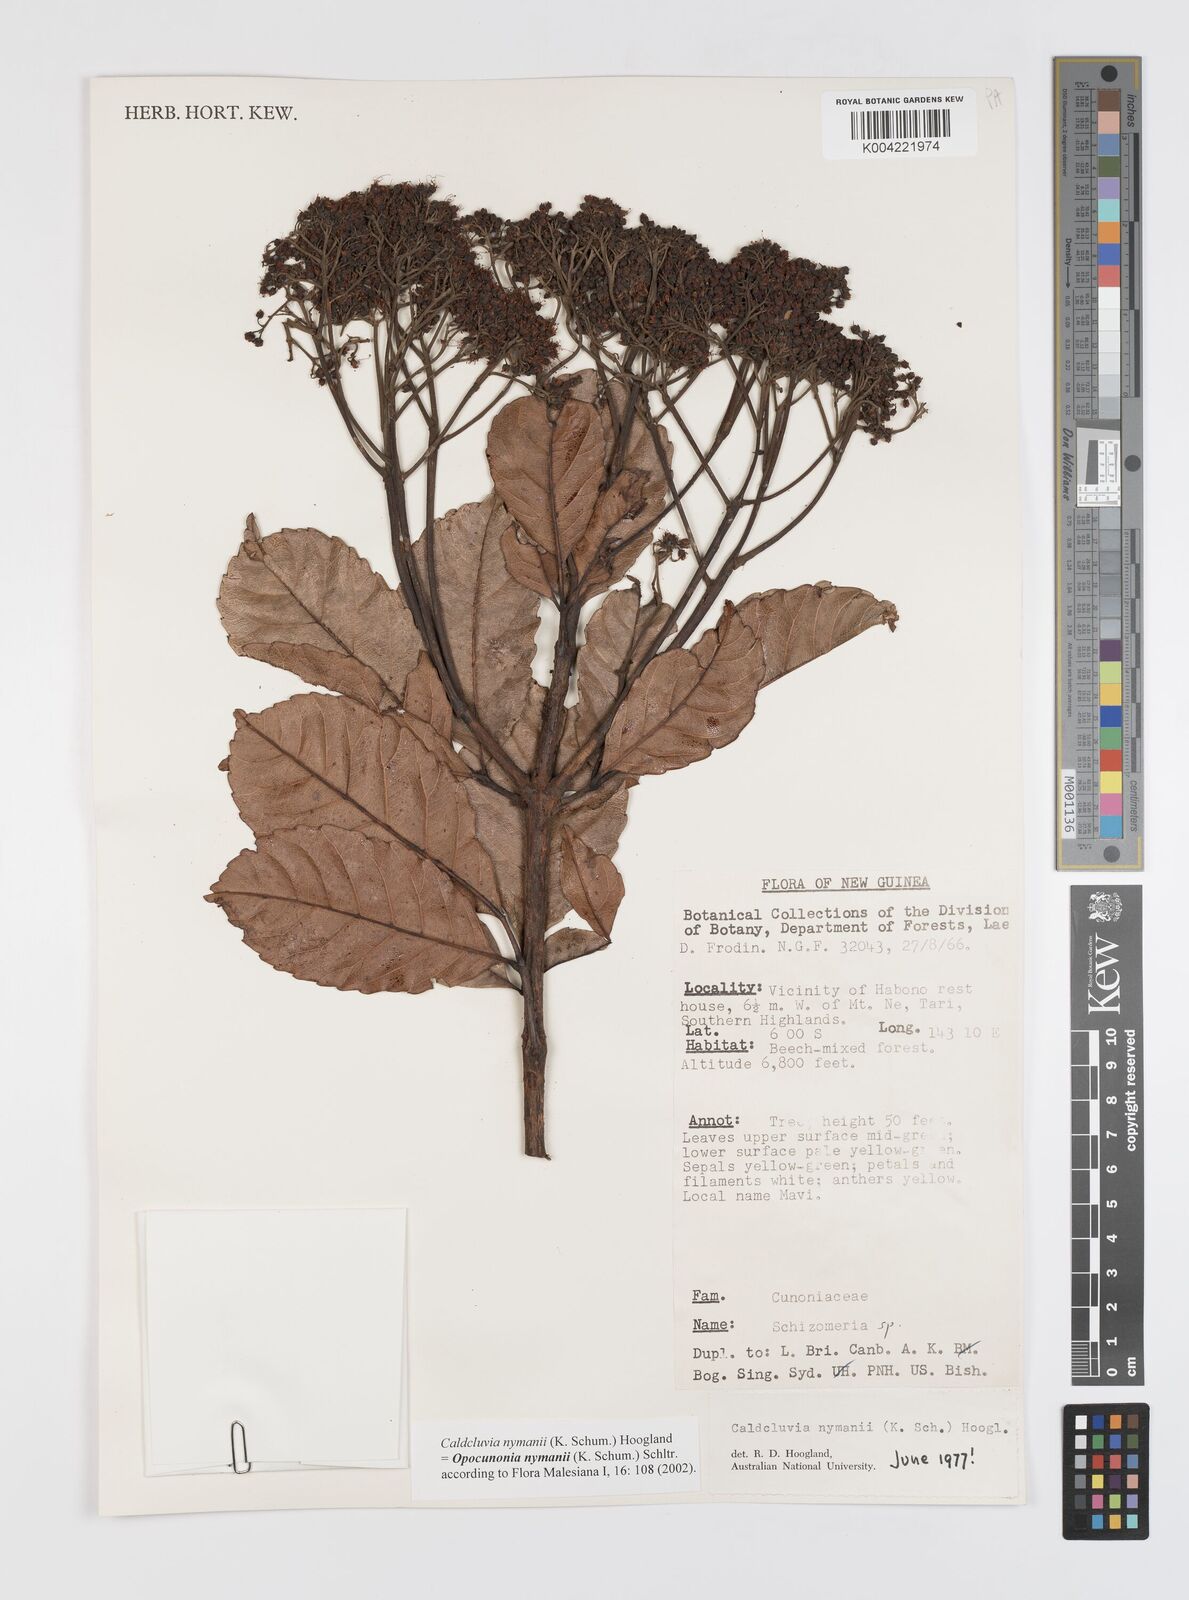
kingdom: Plantae
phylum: Tracheophyta
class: Magnoliopsida
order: Oxalidales
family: Cunoniaceae
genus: Opocunonia
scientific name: Opocunonia nymanii
